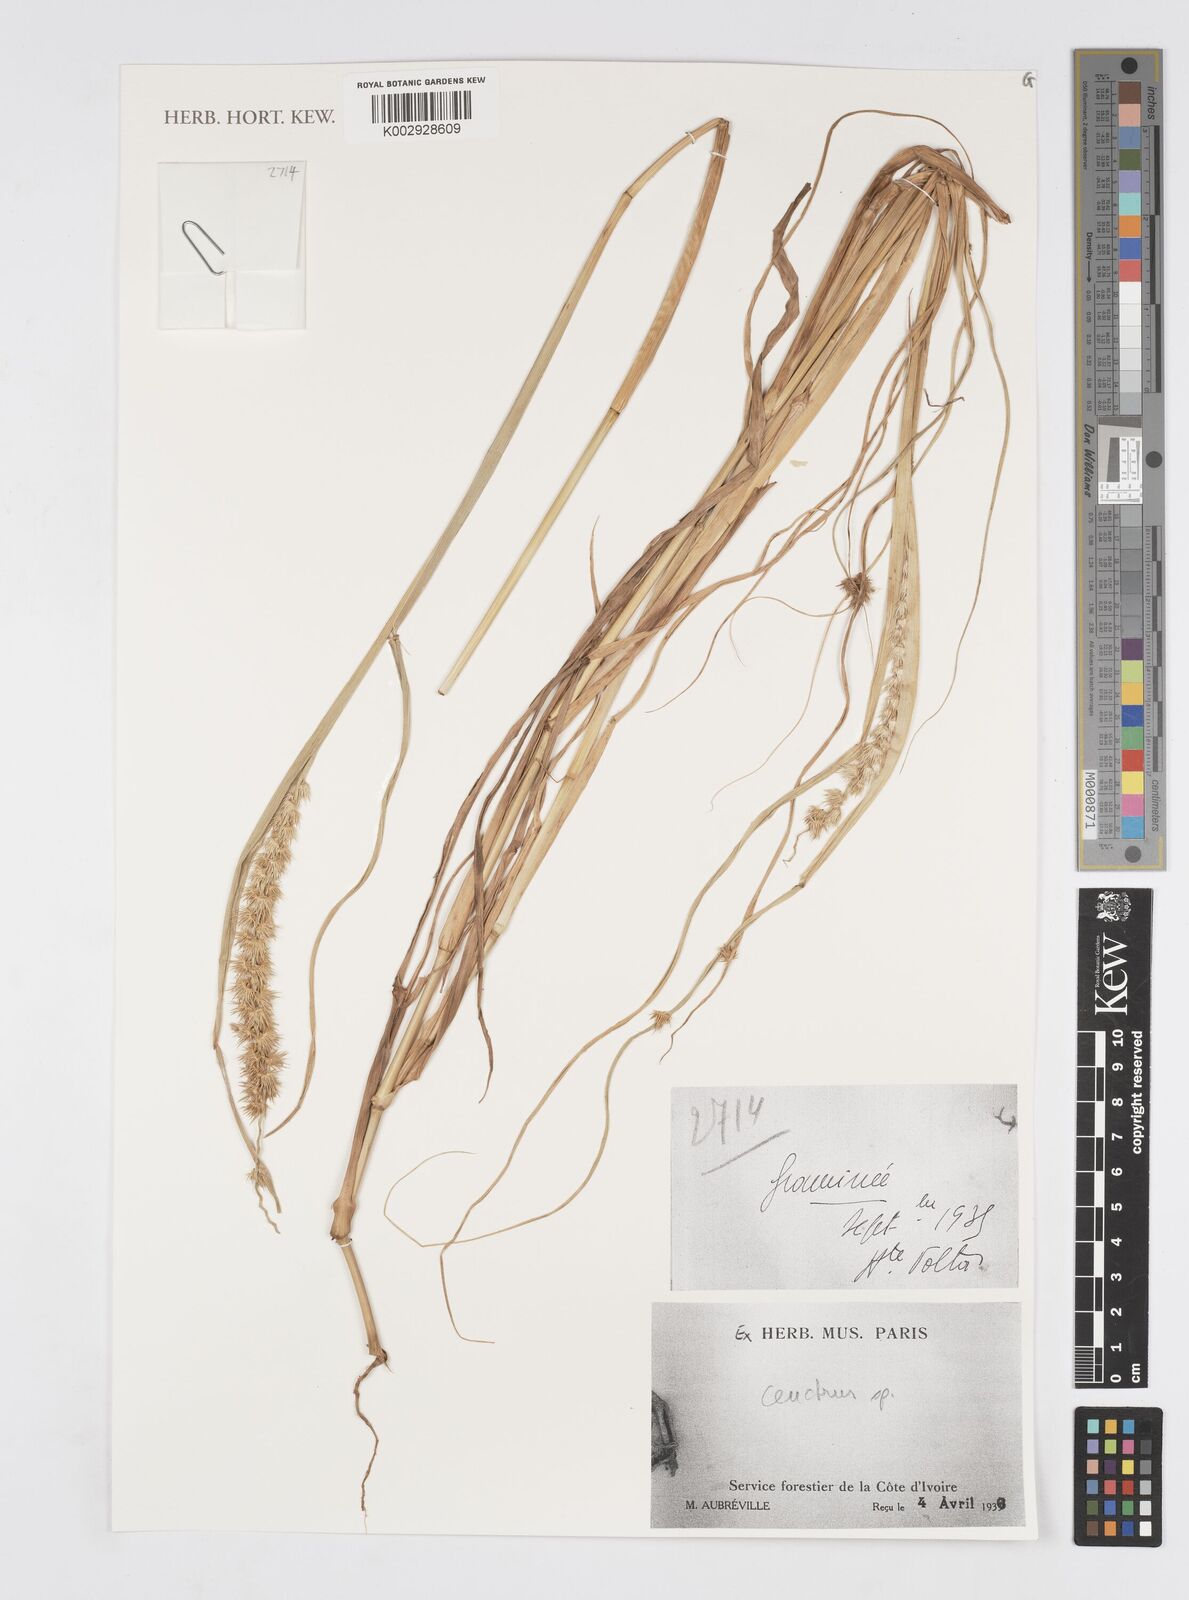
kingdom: Plantae
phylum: Tracheophyta
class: Liliopsida
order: Poales
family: Poaceae
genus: Cenchrus
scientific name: Cenchrus
